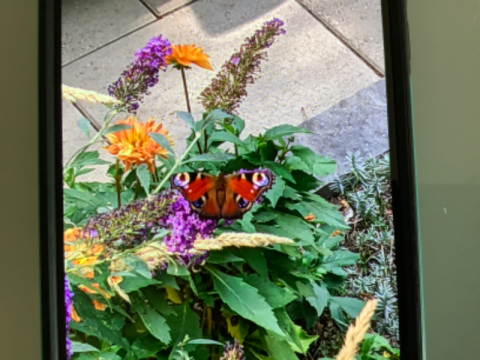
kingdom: Animalia
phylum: Arthropoda
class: Insecta
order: Lepidoptera
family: Nymphalidae
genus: Aglais
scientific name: Aglais io
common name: European Peacock
